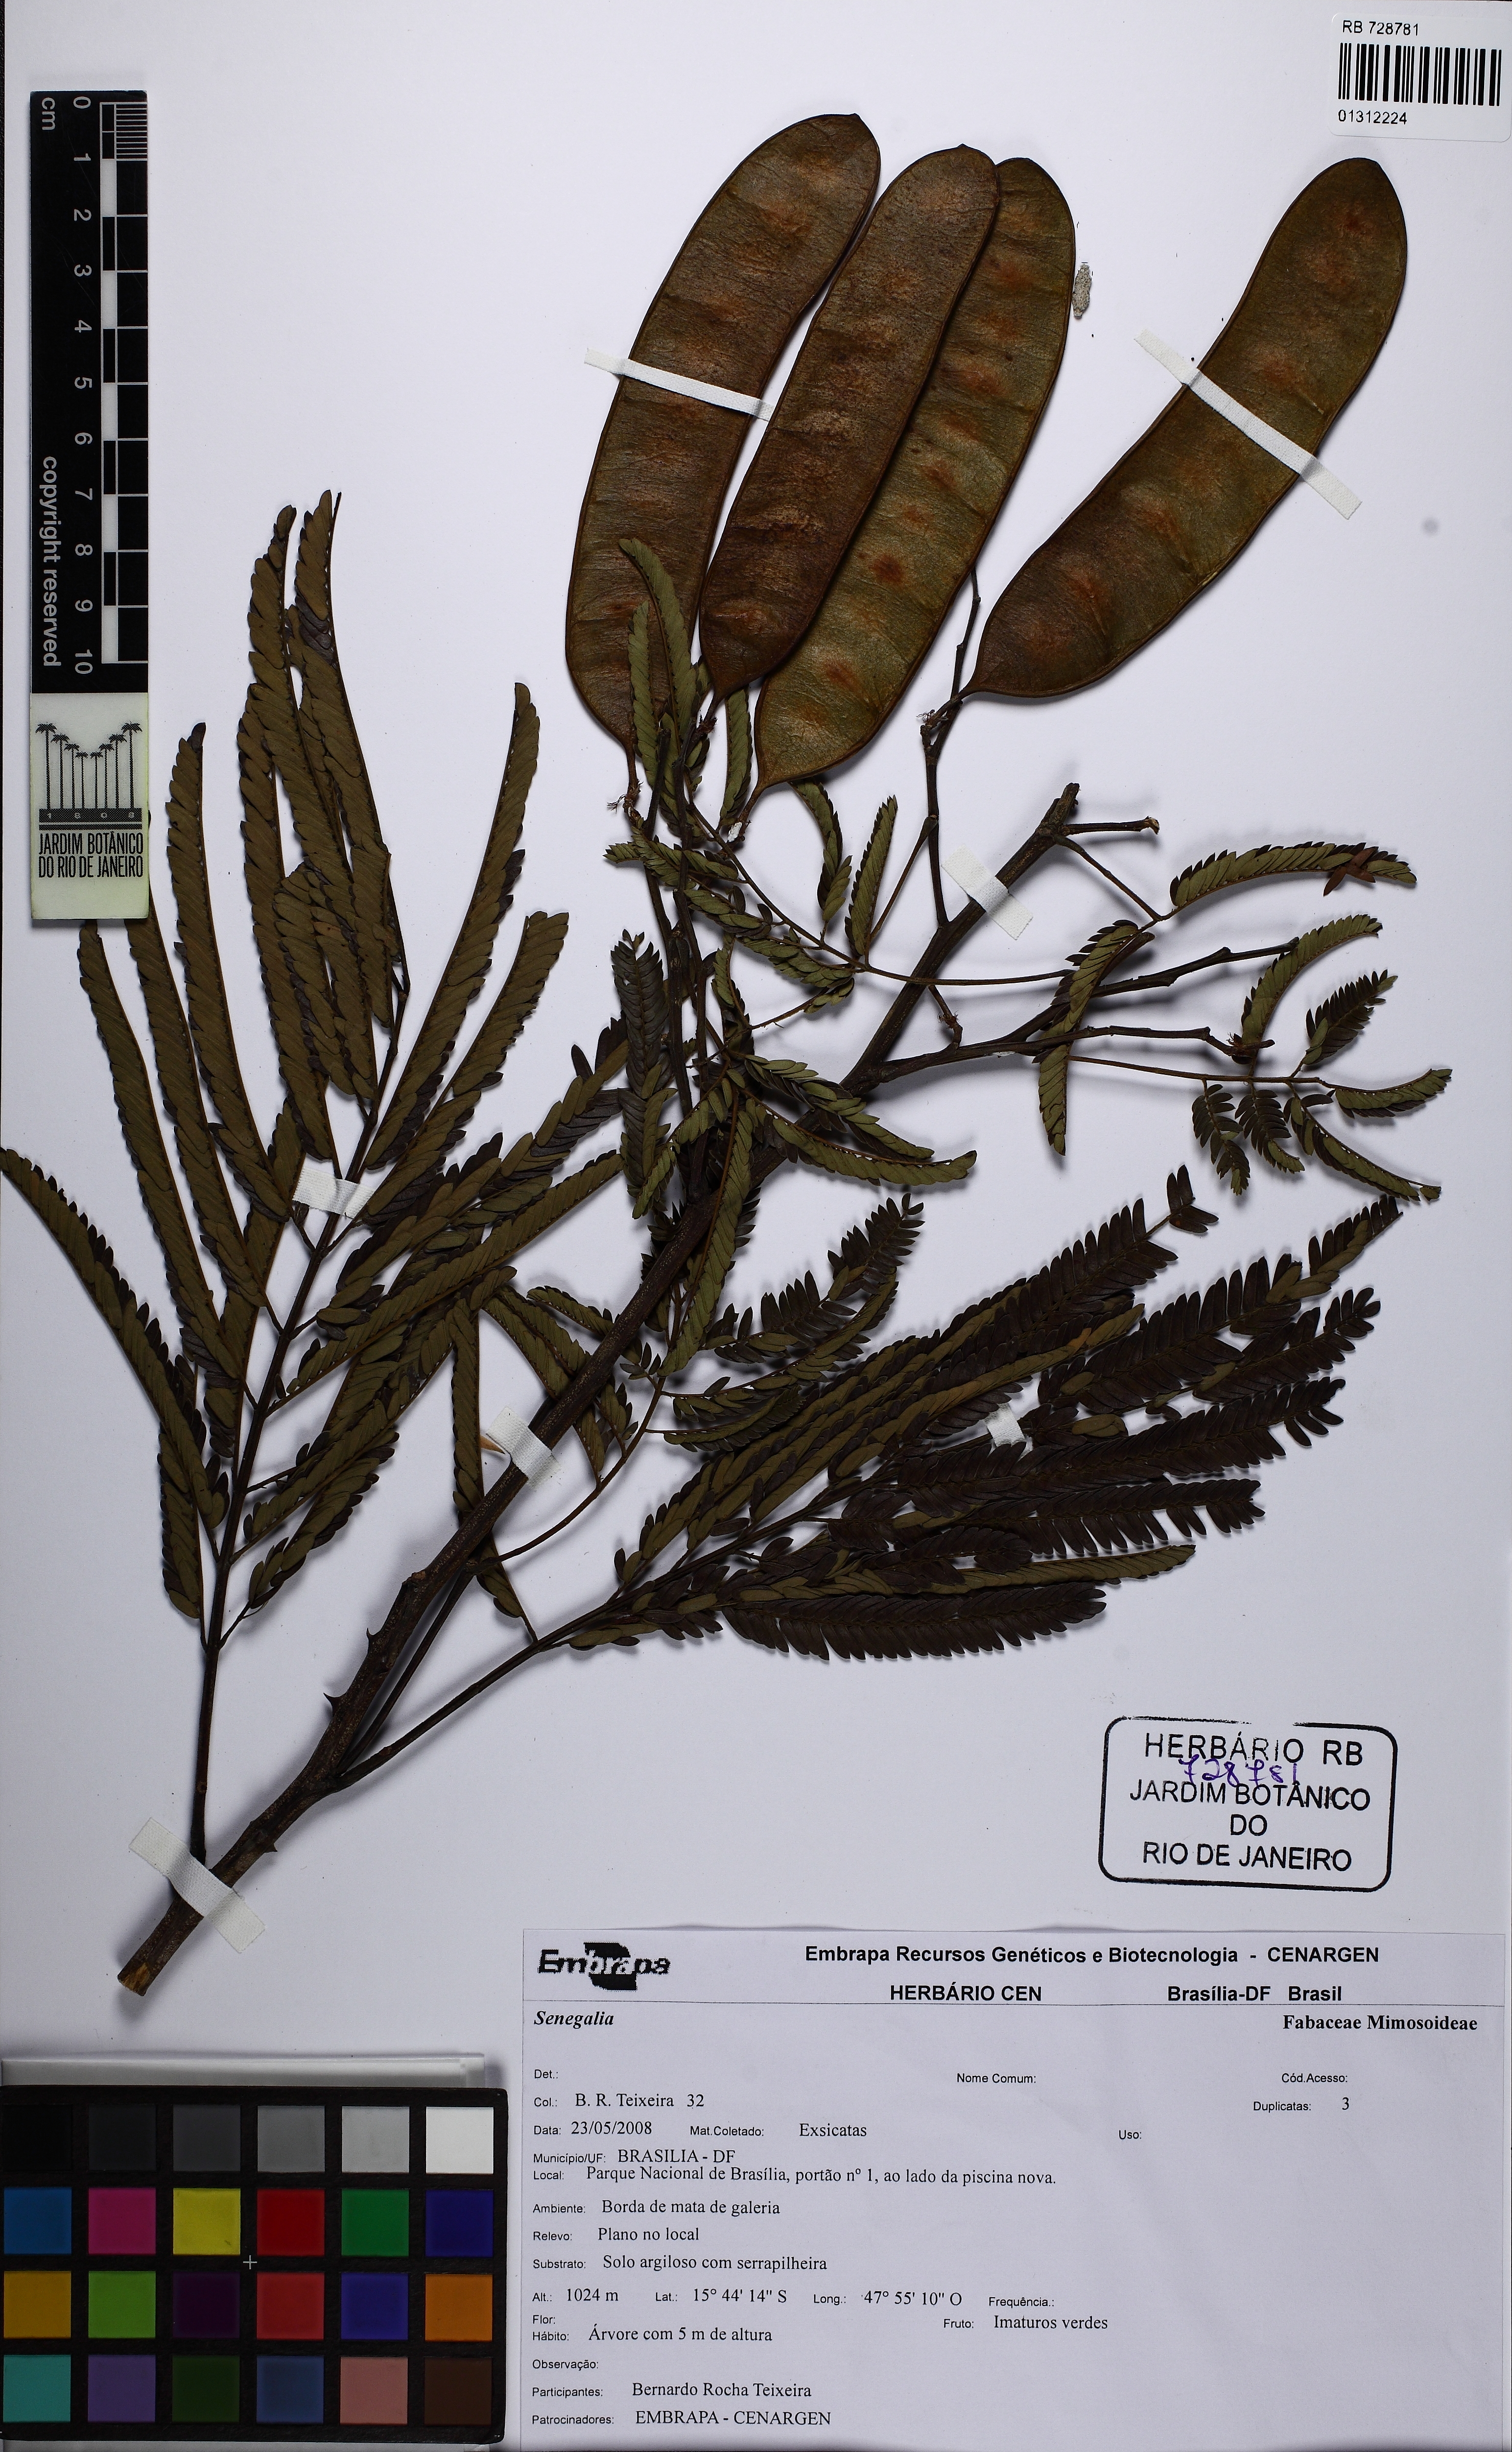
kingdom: Plantae
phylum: Tracheophyta
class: Magnoliopsida
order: Fabales
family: Fabaceae
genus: Senegalia
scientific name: Senegalia paraensis
